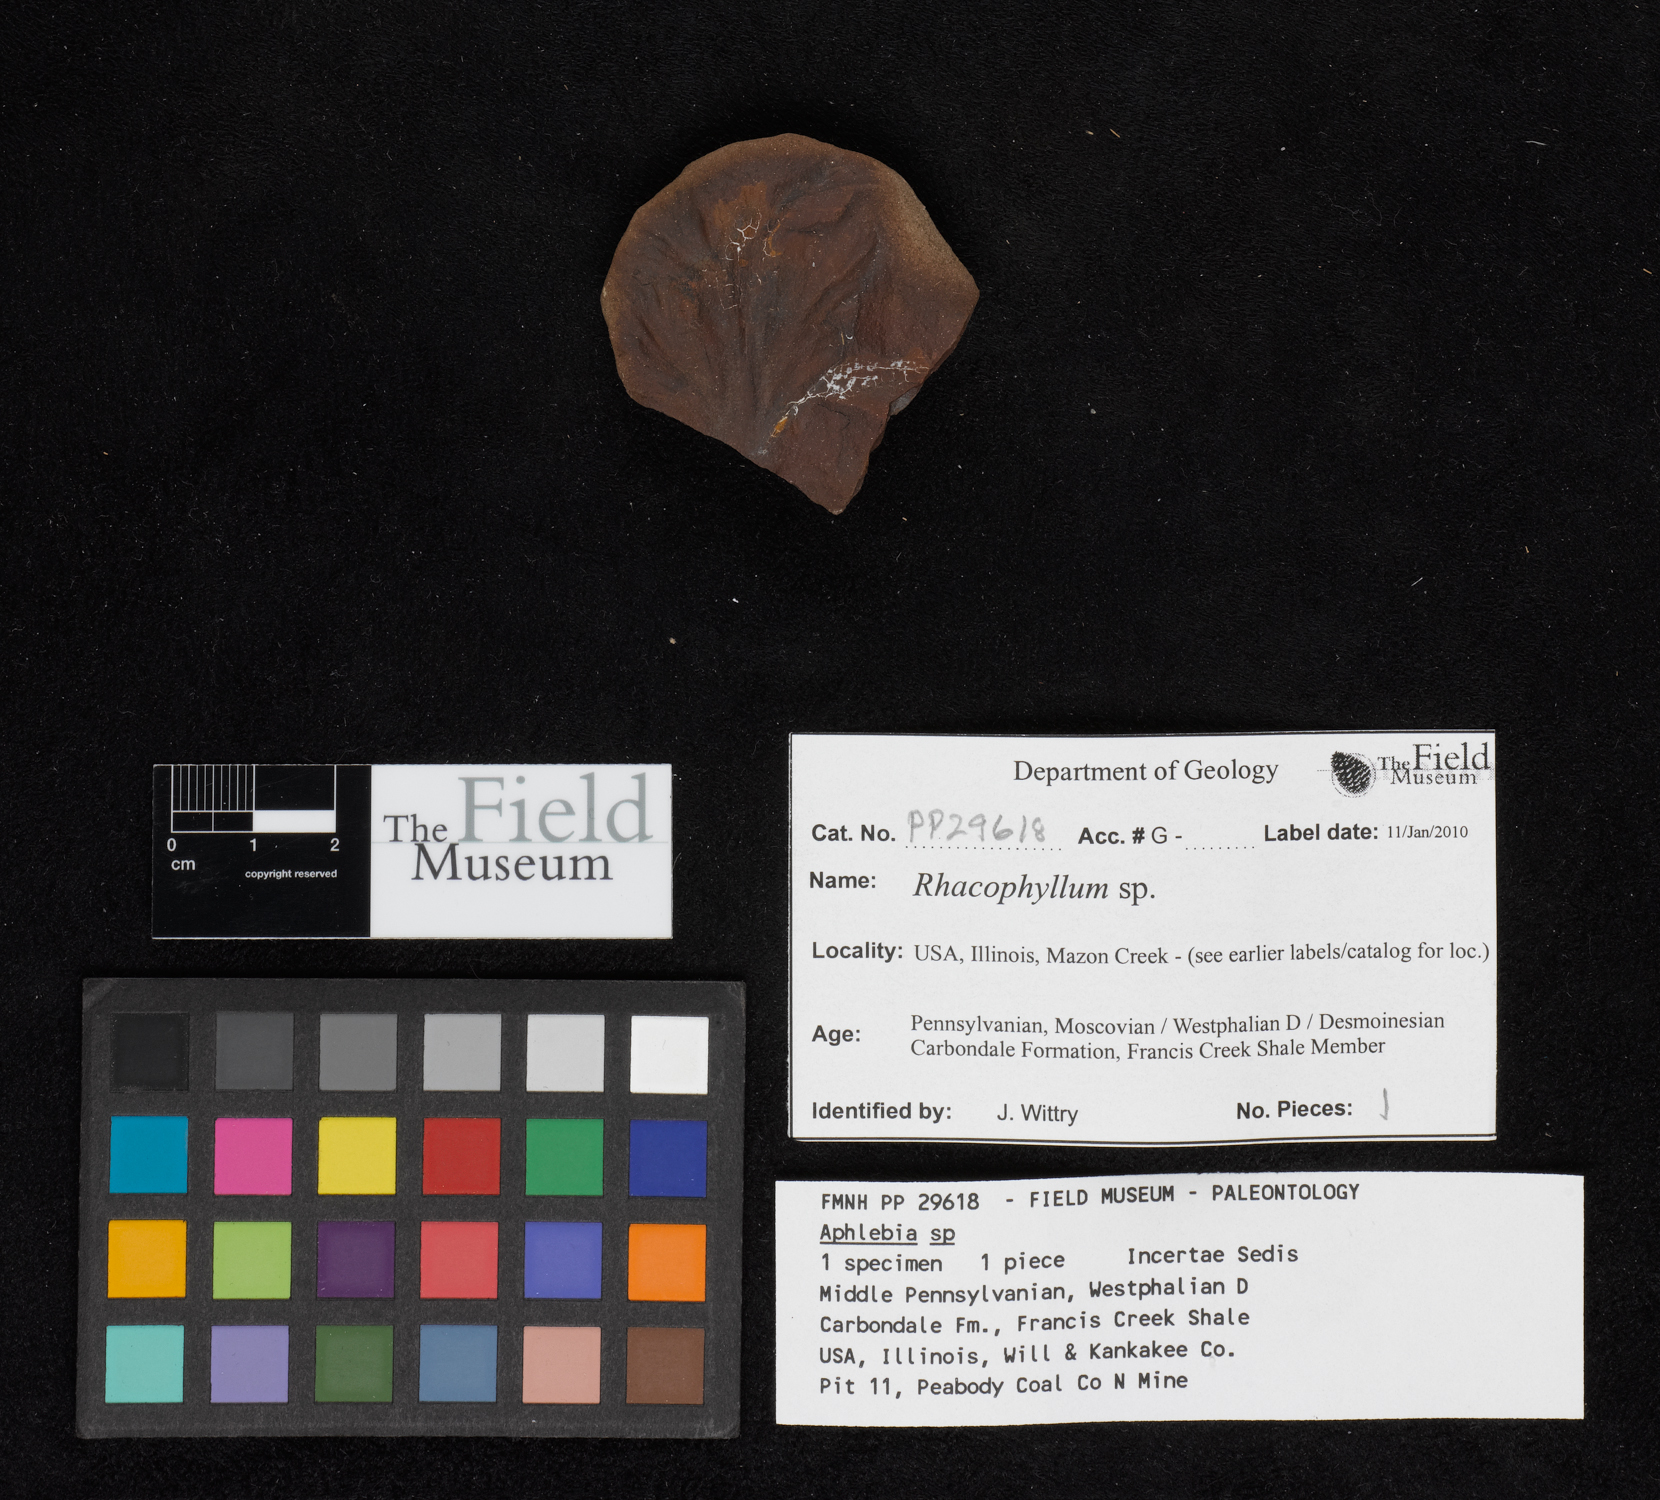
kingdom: Plantae
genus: Rhacophyllum
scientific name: Rhacophyllum
